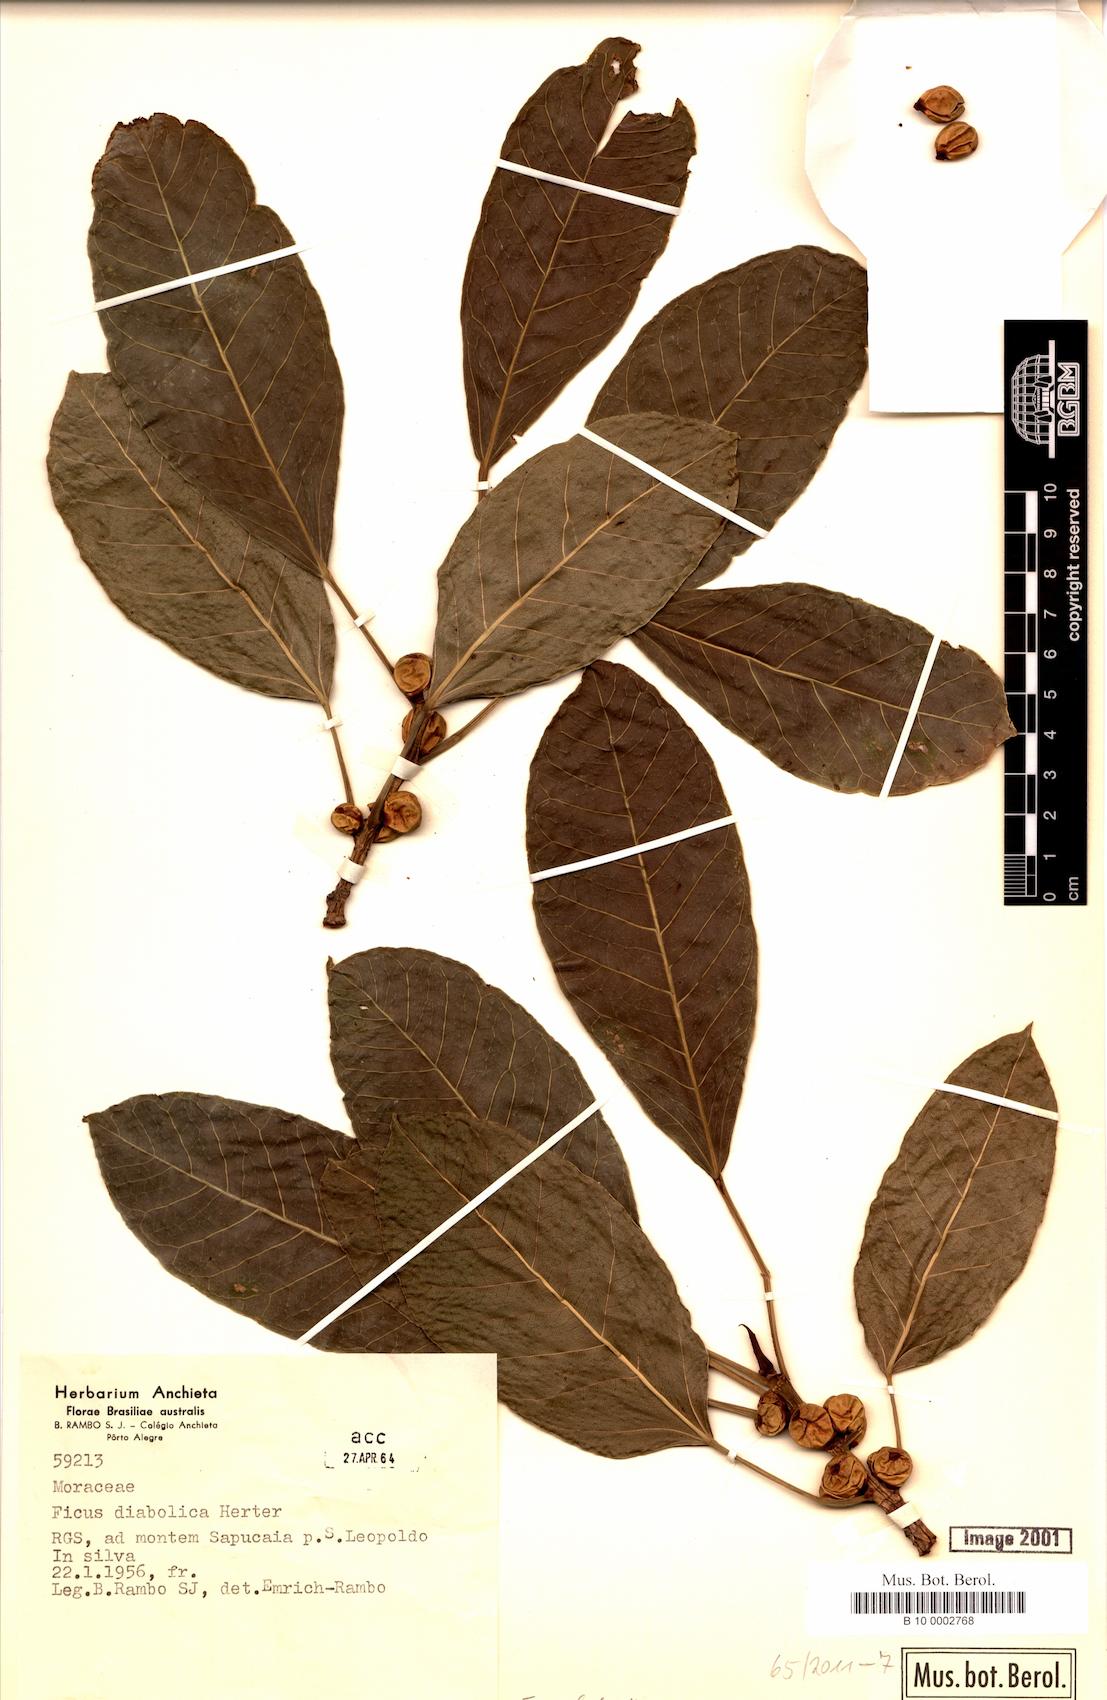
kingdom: Plantae
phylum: Tracheophyta
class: Magnoliopsida
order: Rosales
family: Moraceae
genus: Ficus
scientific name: Ficus luschnathiana
